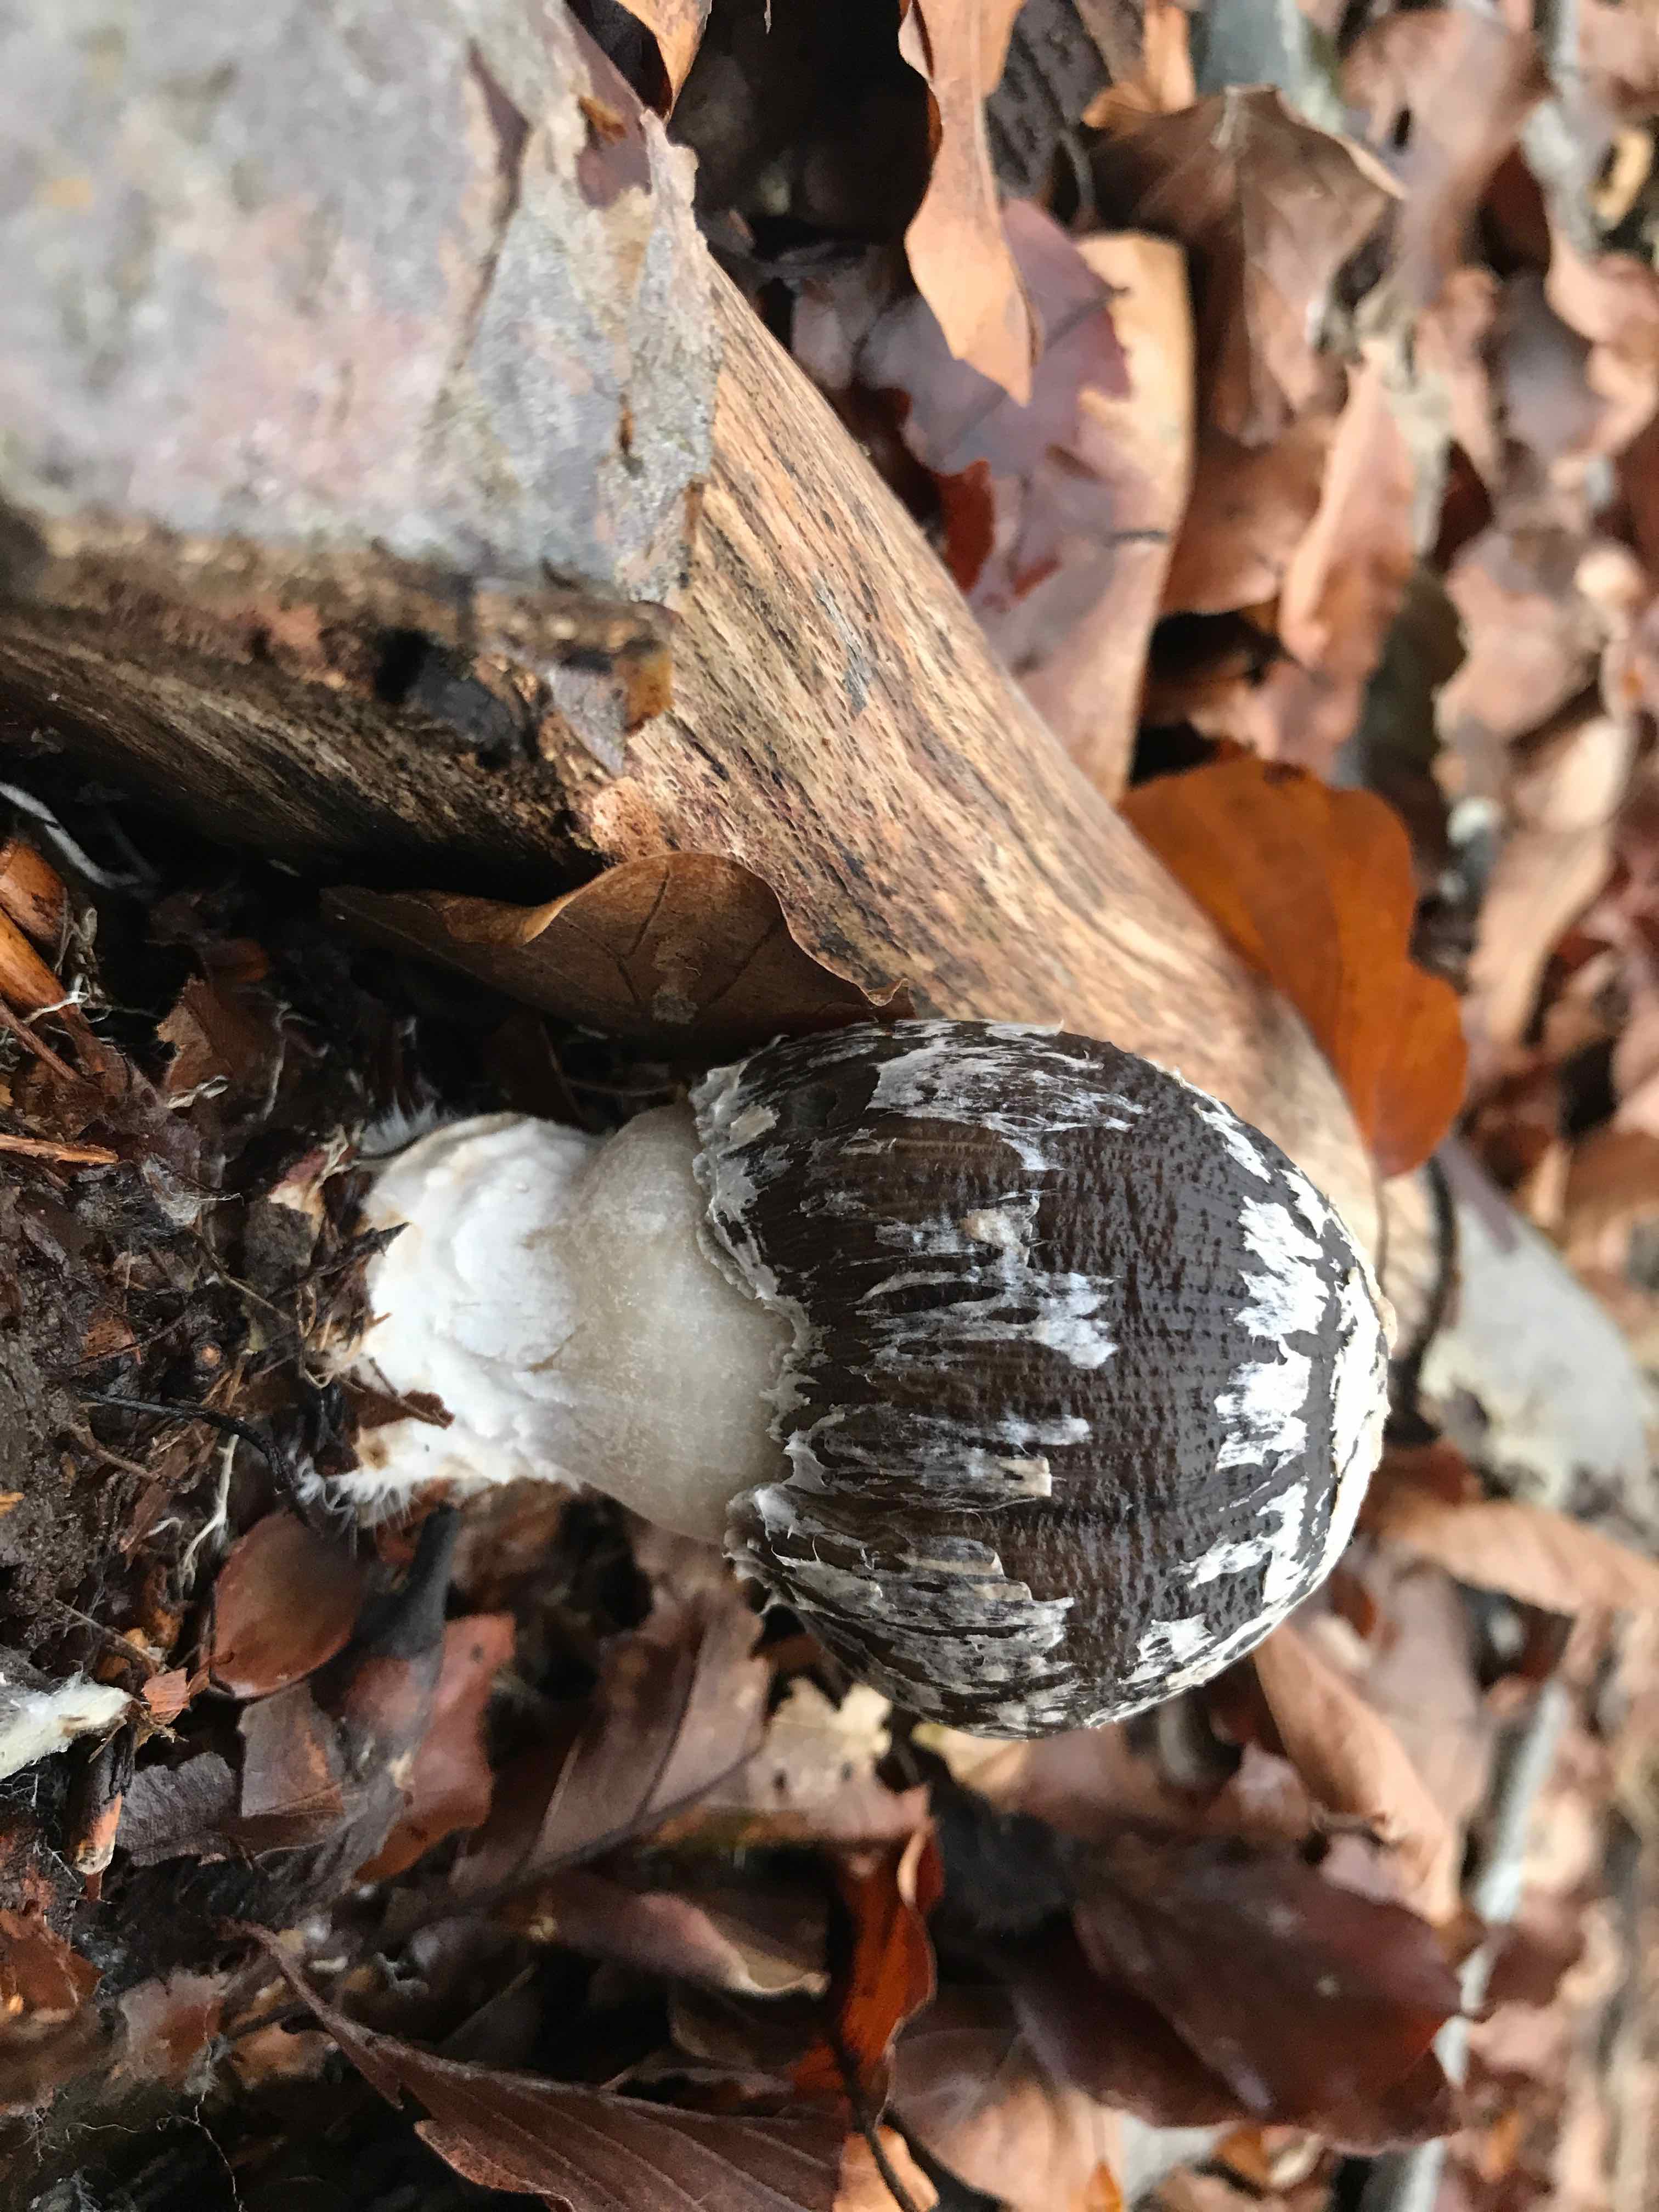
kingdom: Fungi
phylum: Basidiomycota
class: Agaricomycetes
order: Agaricales
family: Psathyrellaceae
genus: Coprinopsis
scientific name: Coprinopsis picacea
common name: skade-blækhat
